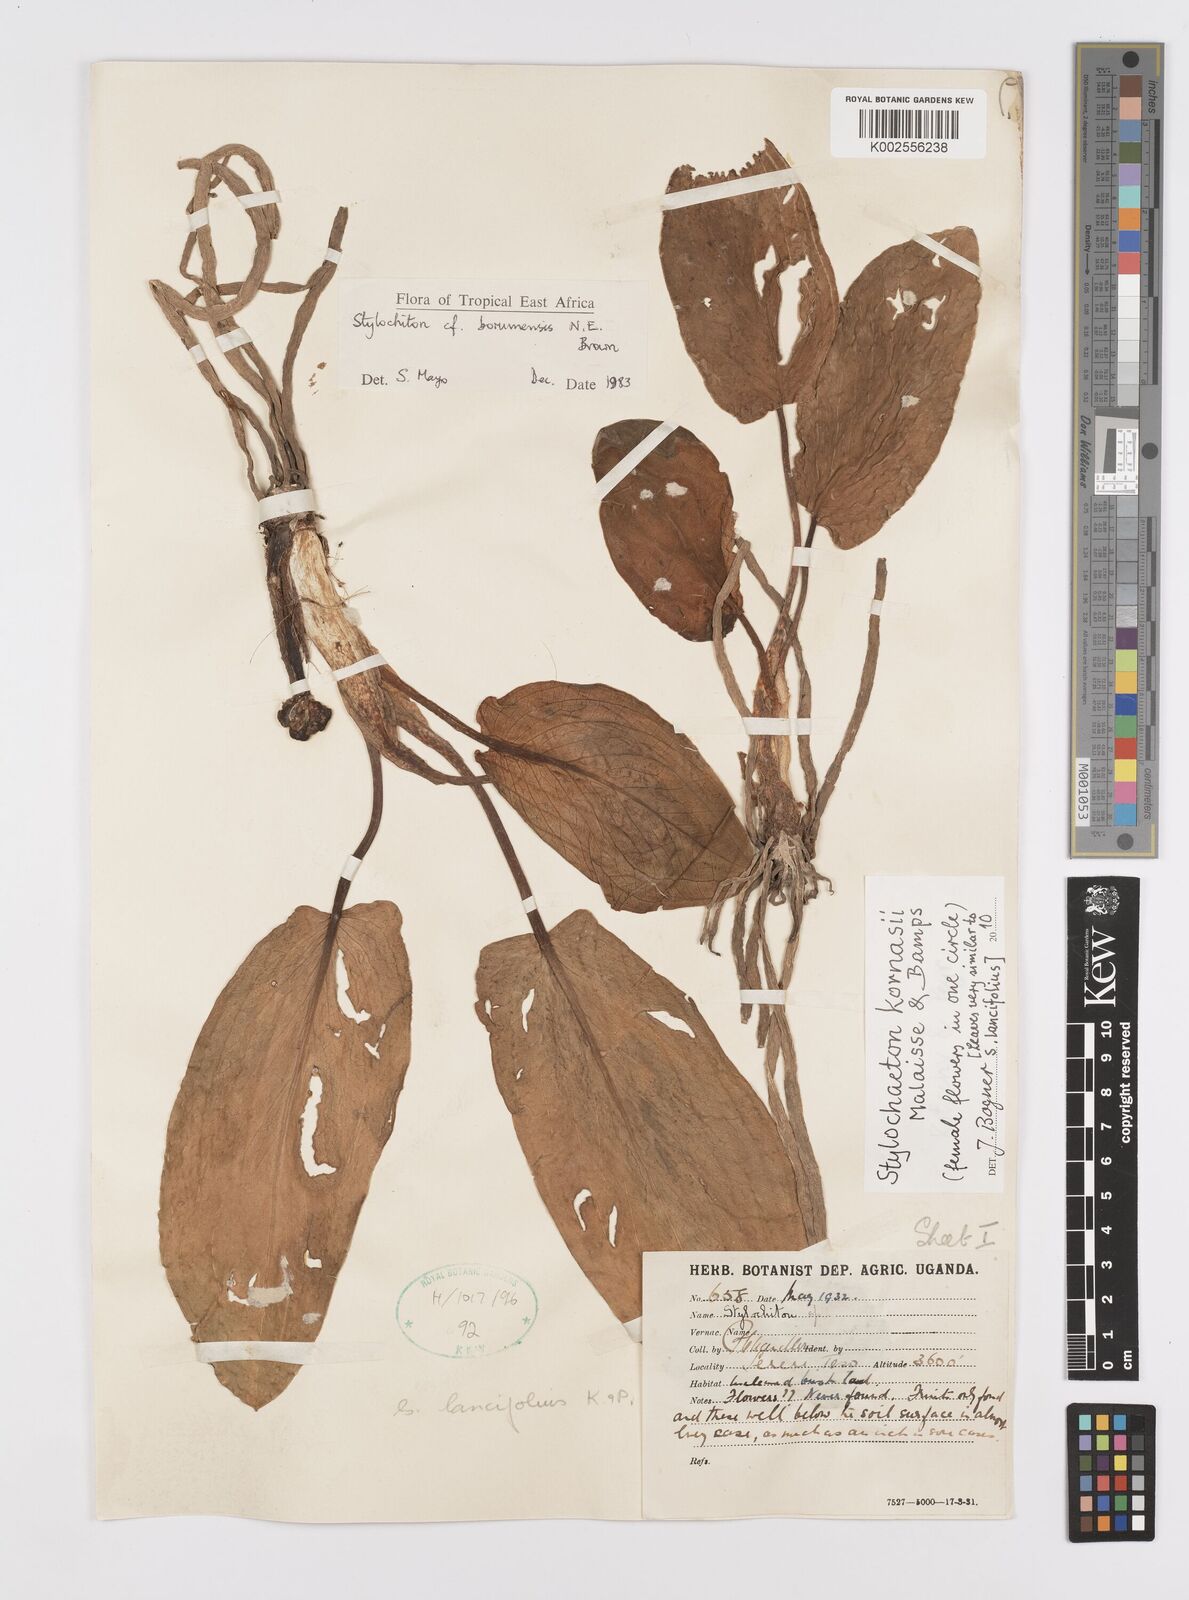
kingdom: Plantae
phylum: Tracheophyta
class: Liliopsida
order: Alismatales
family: Araceae
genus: Stylochaeton
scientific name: Stylochaeton kornasii
